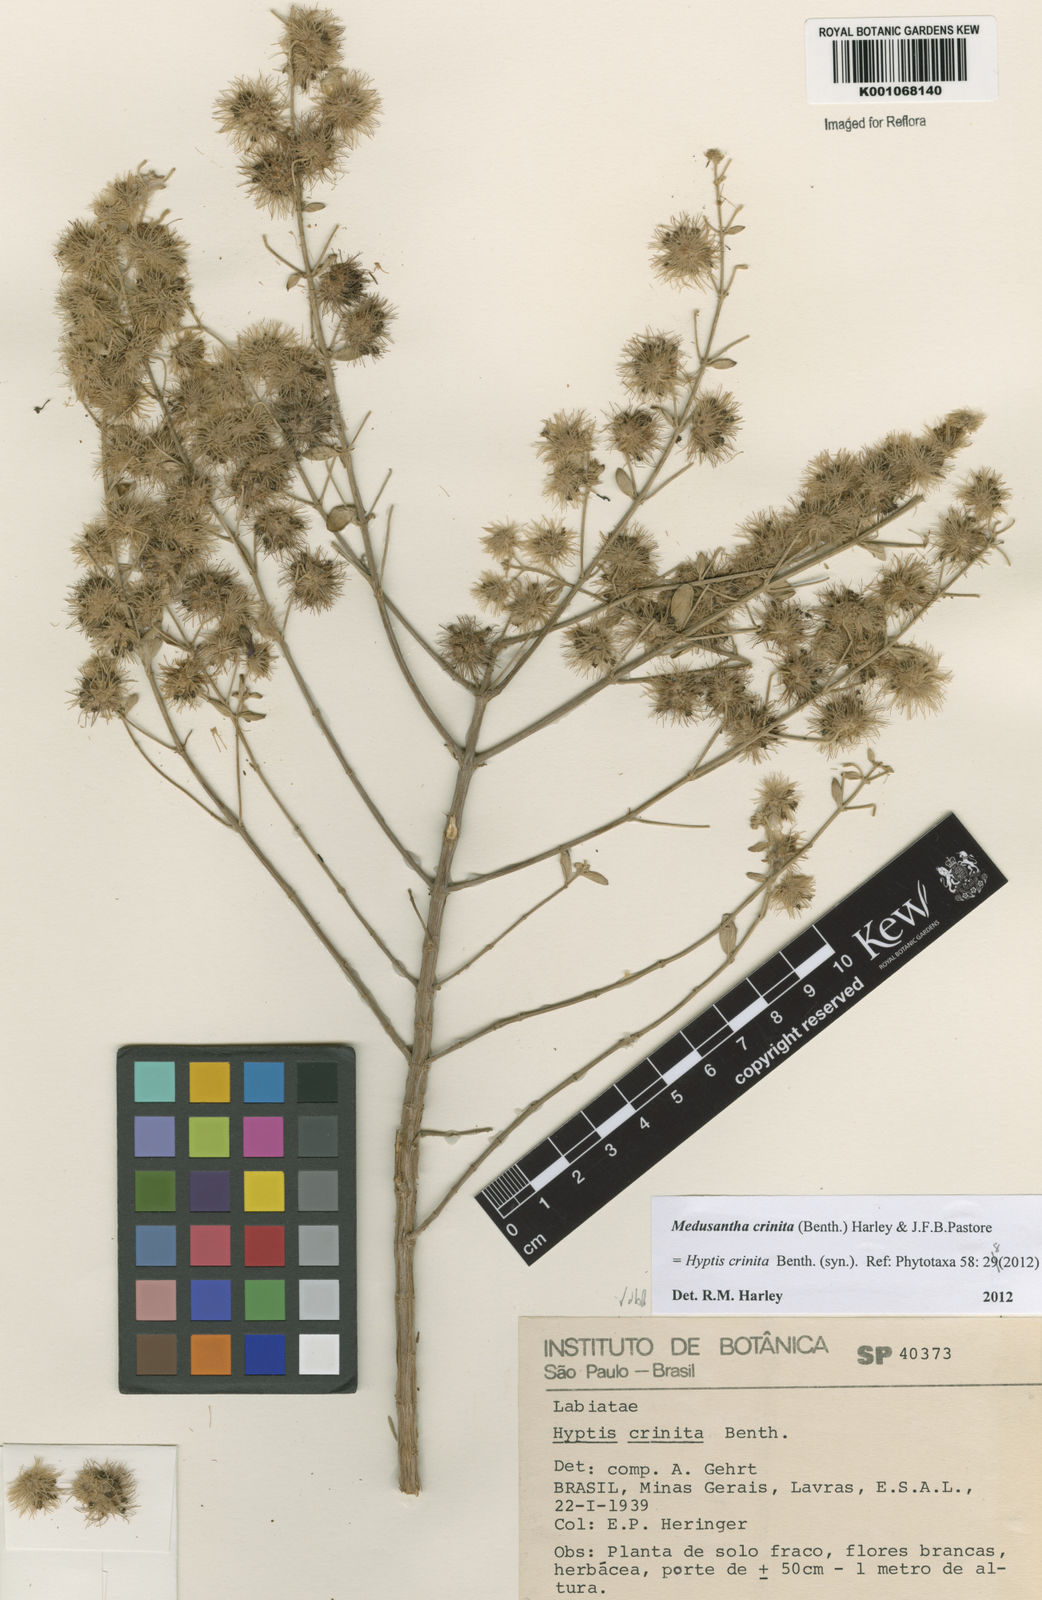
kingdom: Plantae
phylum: Tracheophyta
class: Magnoliopsida
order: Lamiales
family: Lamiaceae
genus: Medusantha
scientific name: Medusantha crinita
